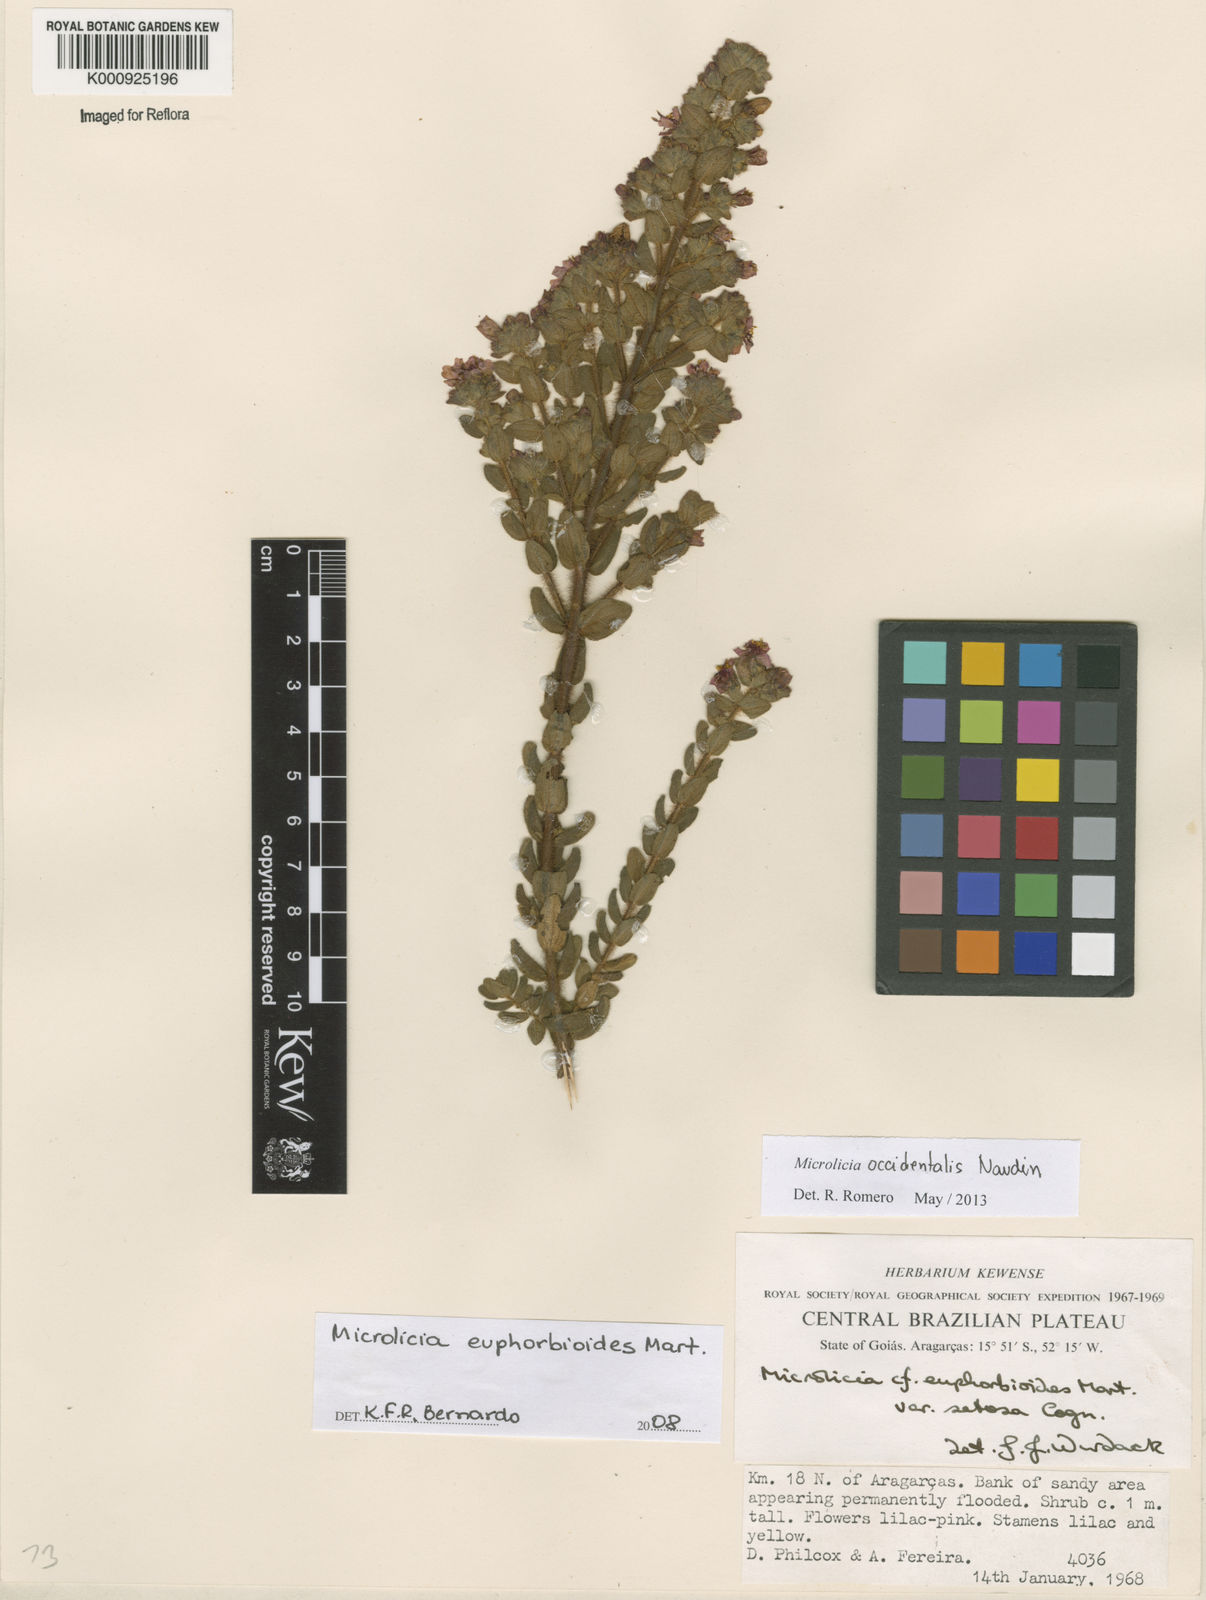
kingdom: Plantae
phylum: Tracheophyta
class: Magnoliopsida
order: Myrtales
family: Melastomataceae
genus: Microlicia
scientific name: Microlicia occidentalis
